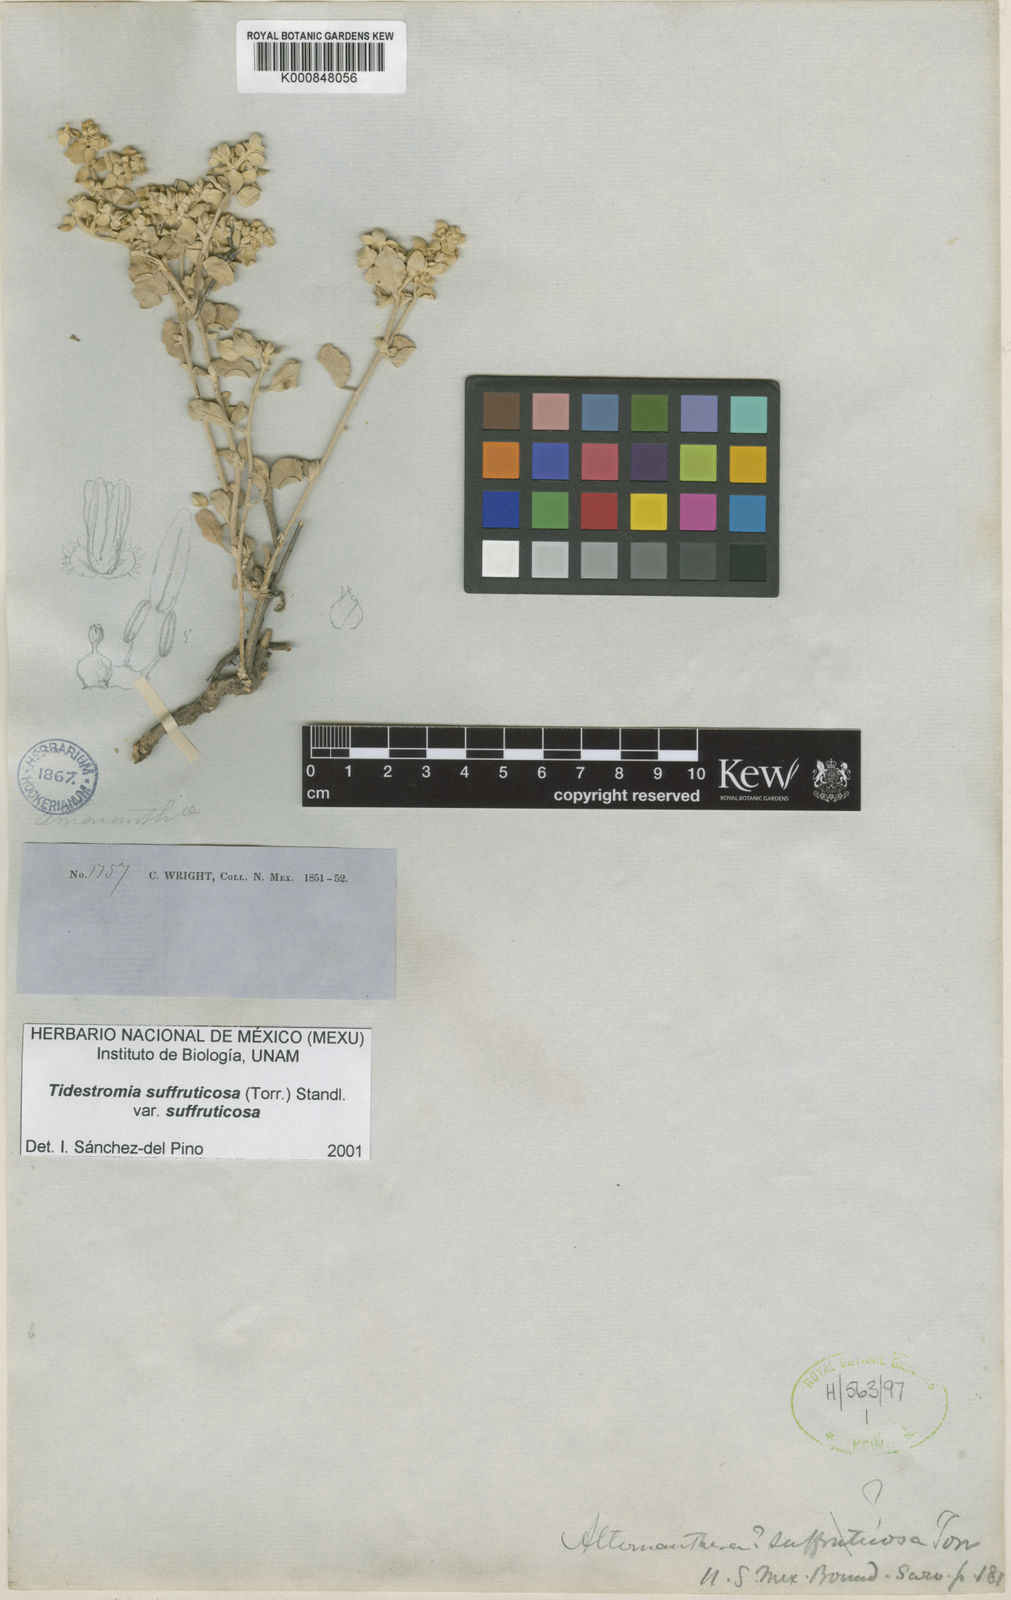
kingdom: Plantae
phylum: Tracheophyta
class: Magnoliopsida
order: Caryophyllales
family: Amaranthaceae
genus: Tidestromia
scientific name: Tidestromia suffruticosa
